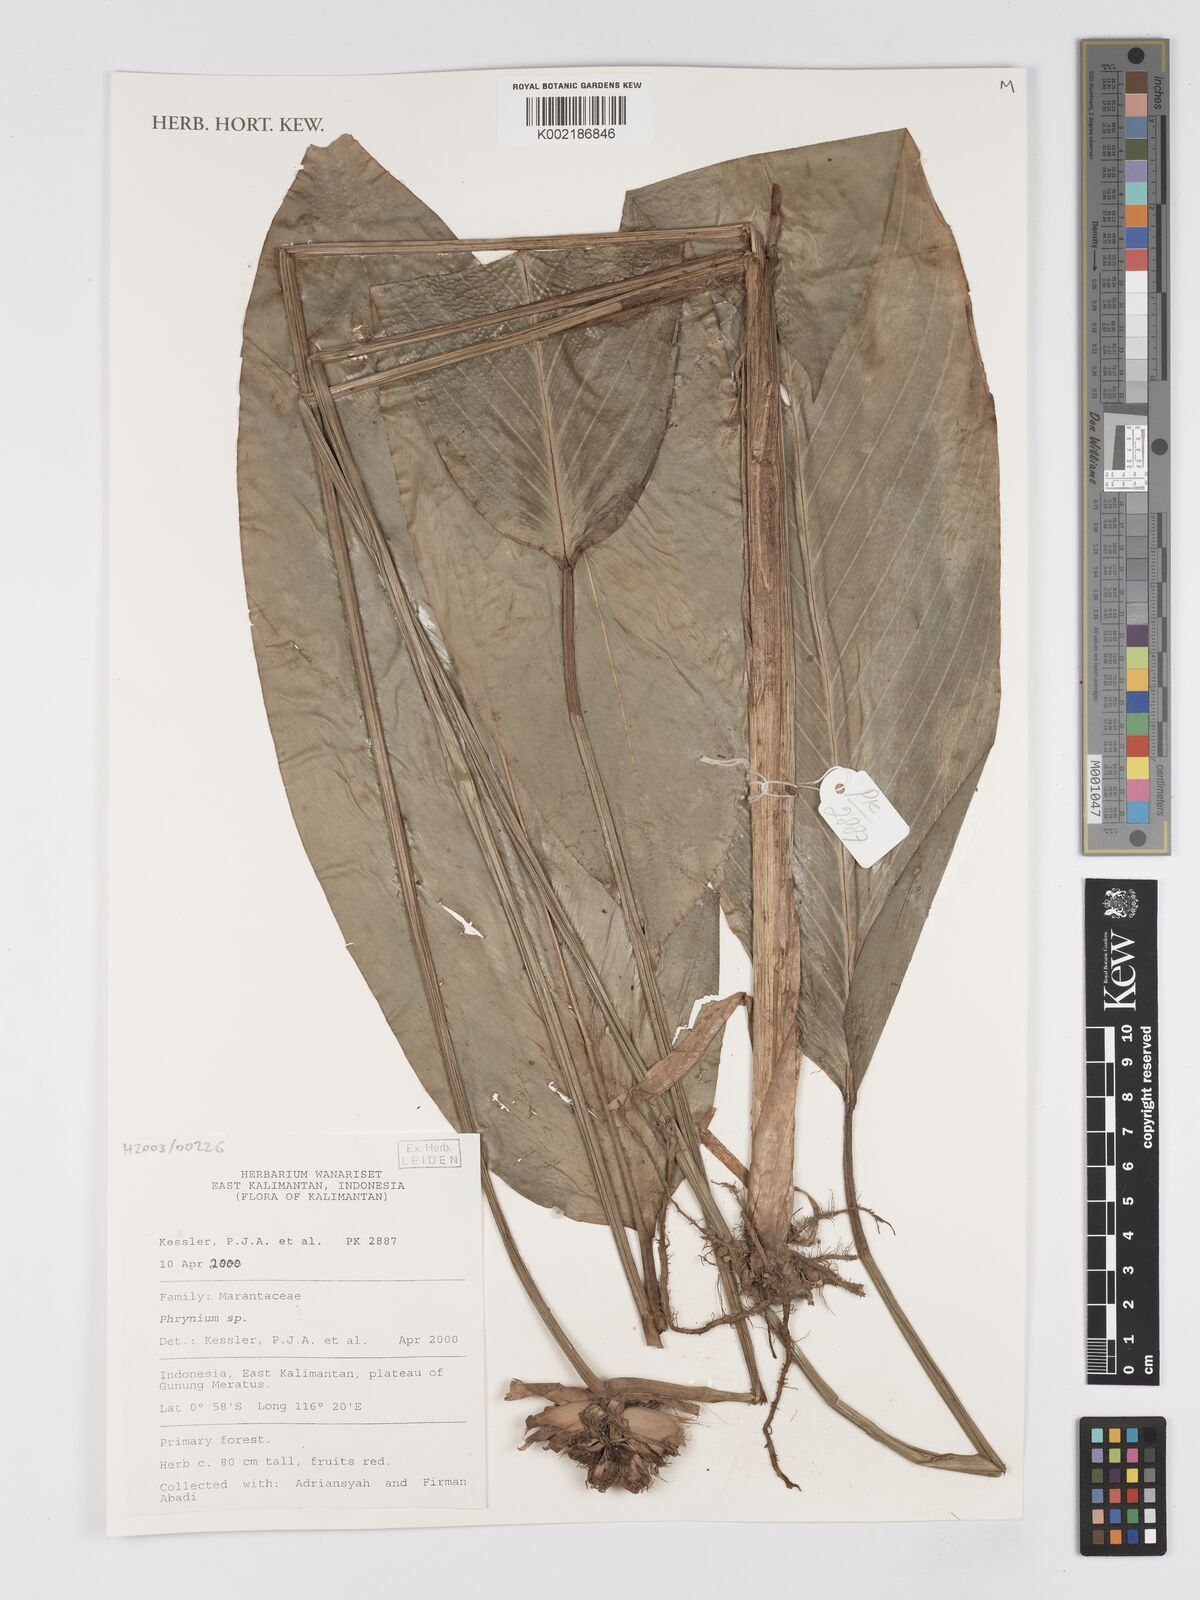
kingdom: Plantae
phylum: Tracheophyta
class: Liliopsida
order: Zingiberales
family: Marantaceae
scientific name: Marantaceae
